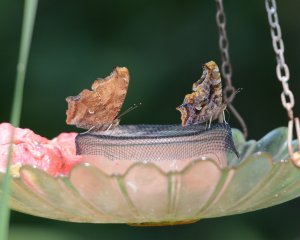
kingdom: Animalia
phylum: Arthropoda
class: Insecta
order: Lepidoptera
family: Nymphalidae
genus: Polygonia
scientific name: Polygonia comma
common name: Eastern Comma
